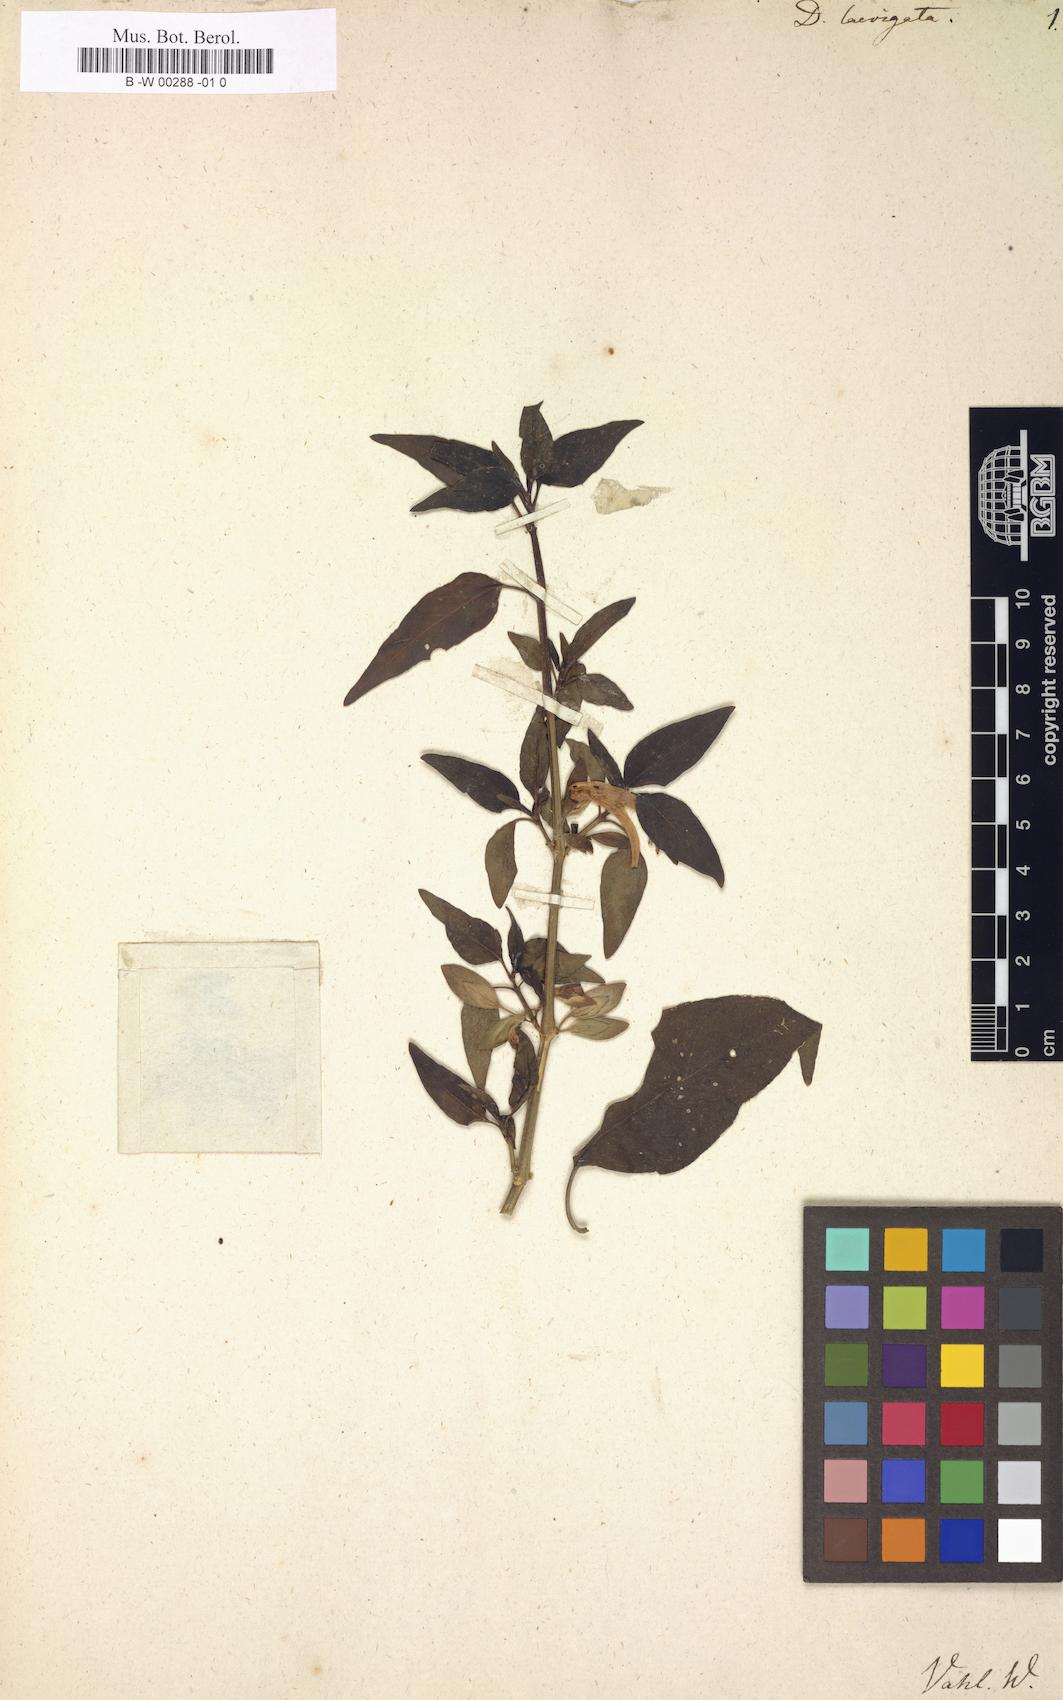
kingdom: Plantae
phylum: Tracheophyta
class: Magnoliopsida
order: Lamiales
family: Acanthaceae
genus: Dicliptera
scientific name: Dicliptera falcata
